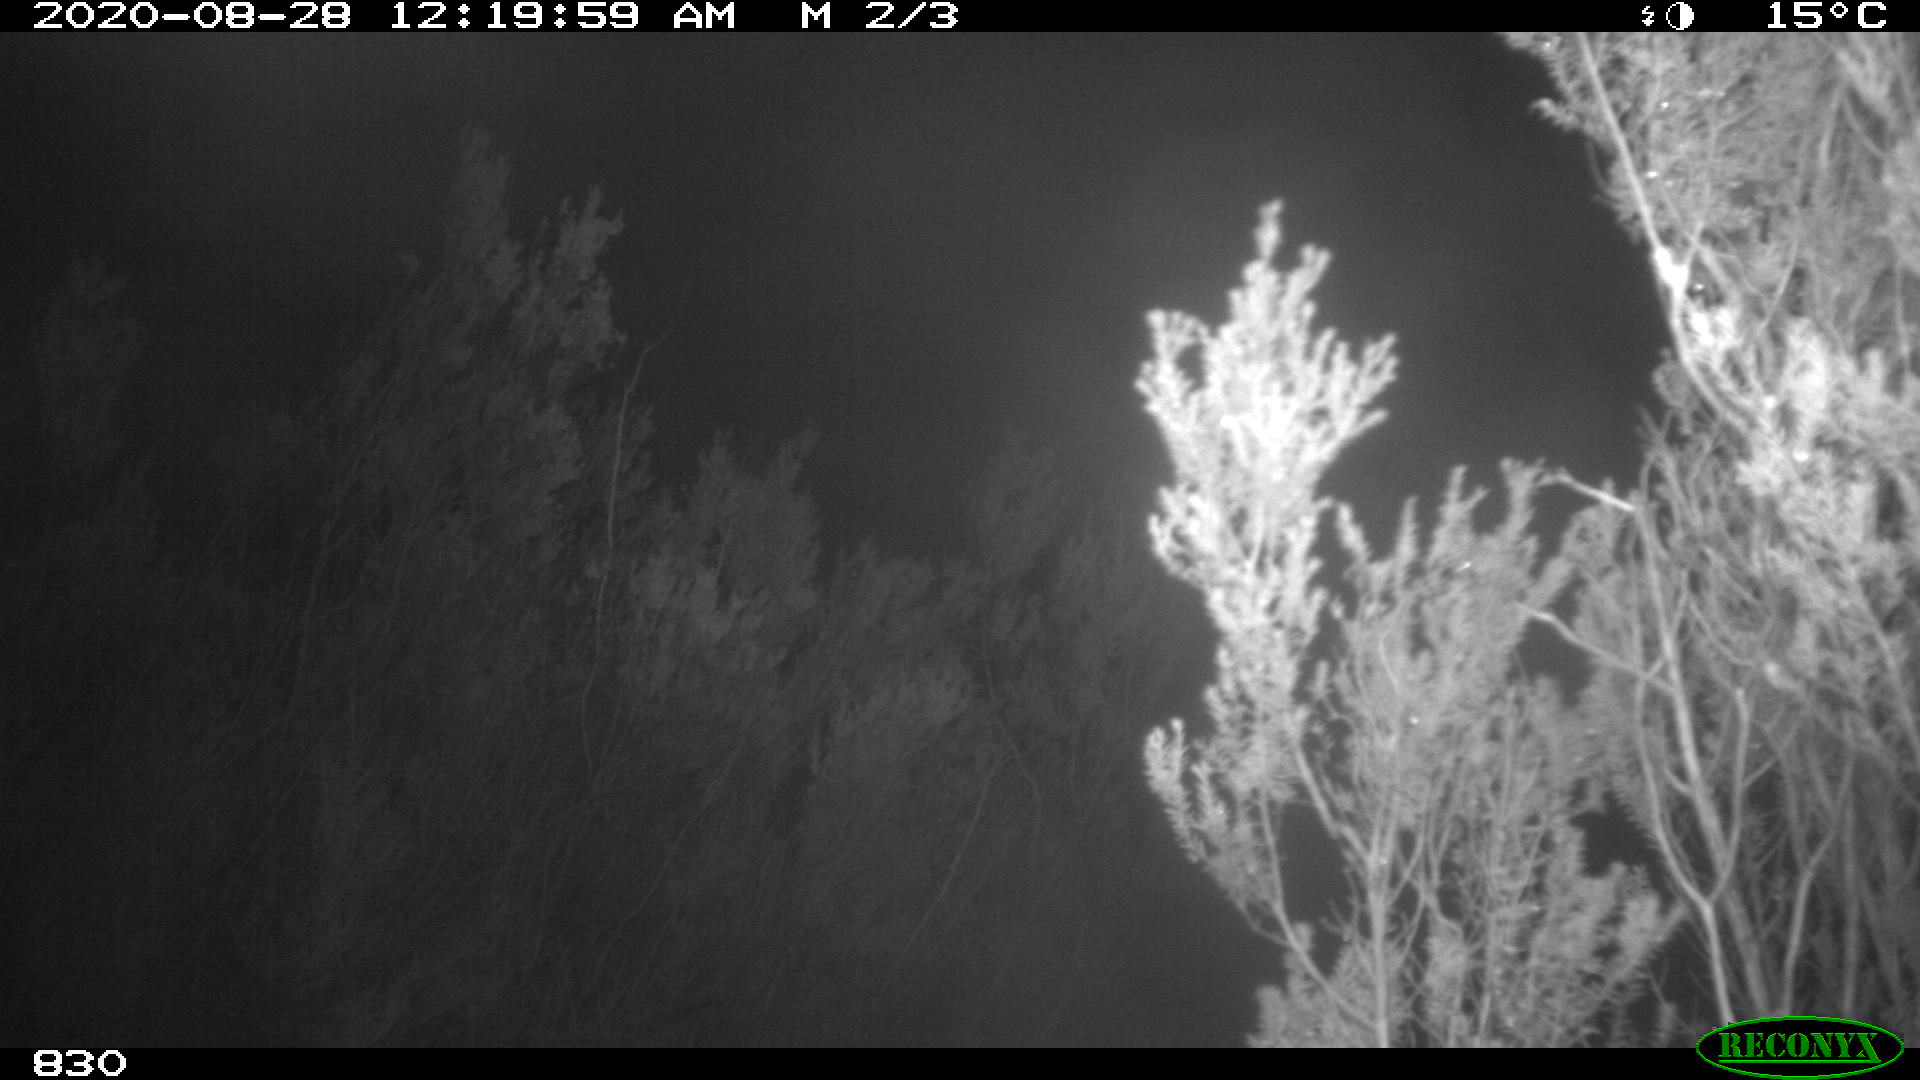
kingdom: Animalia
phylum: Chordata
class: Mammalia
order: Perissodactyla
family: Equidae
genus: Equus
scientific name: Equus caballus
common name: Horse
